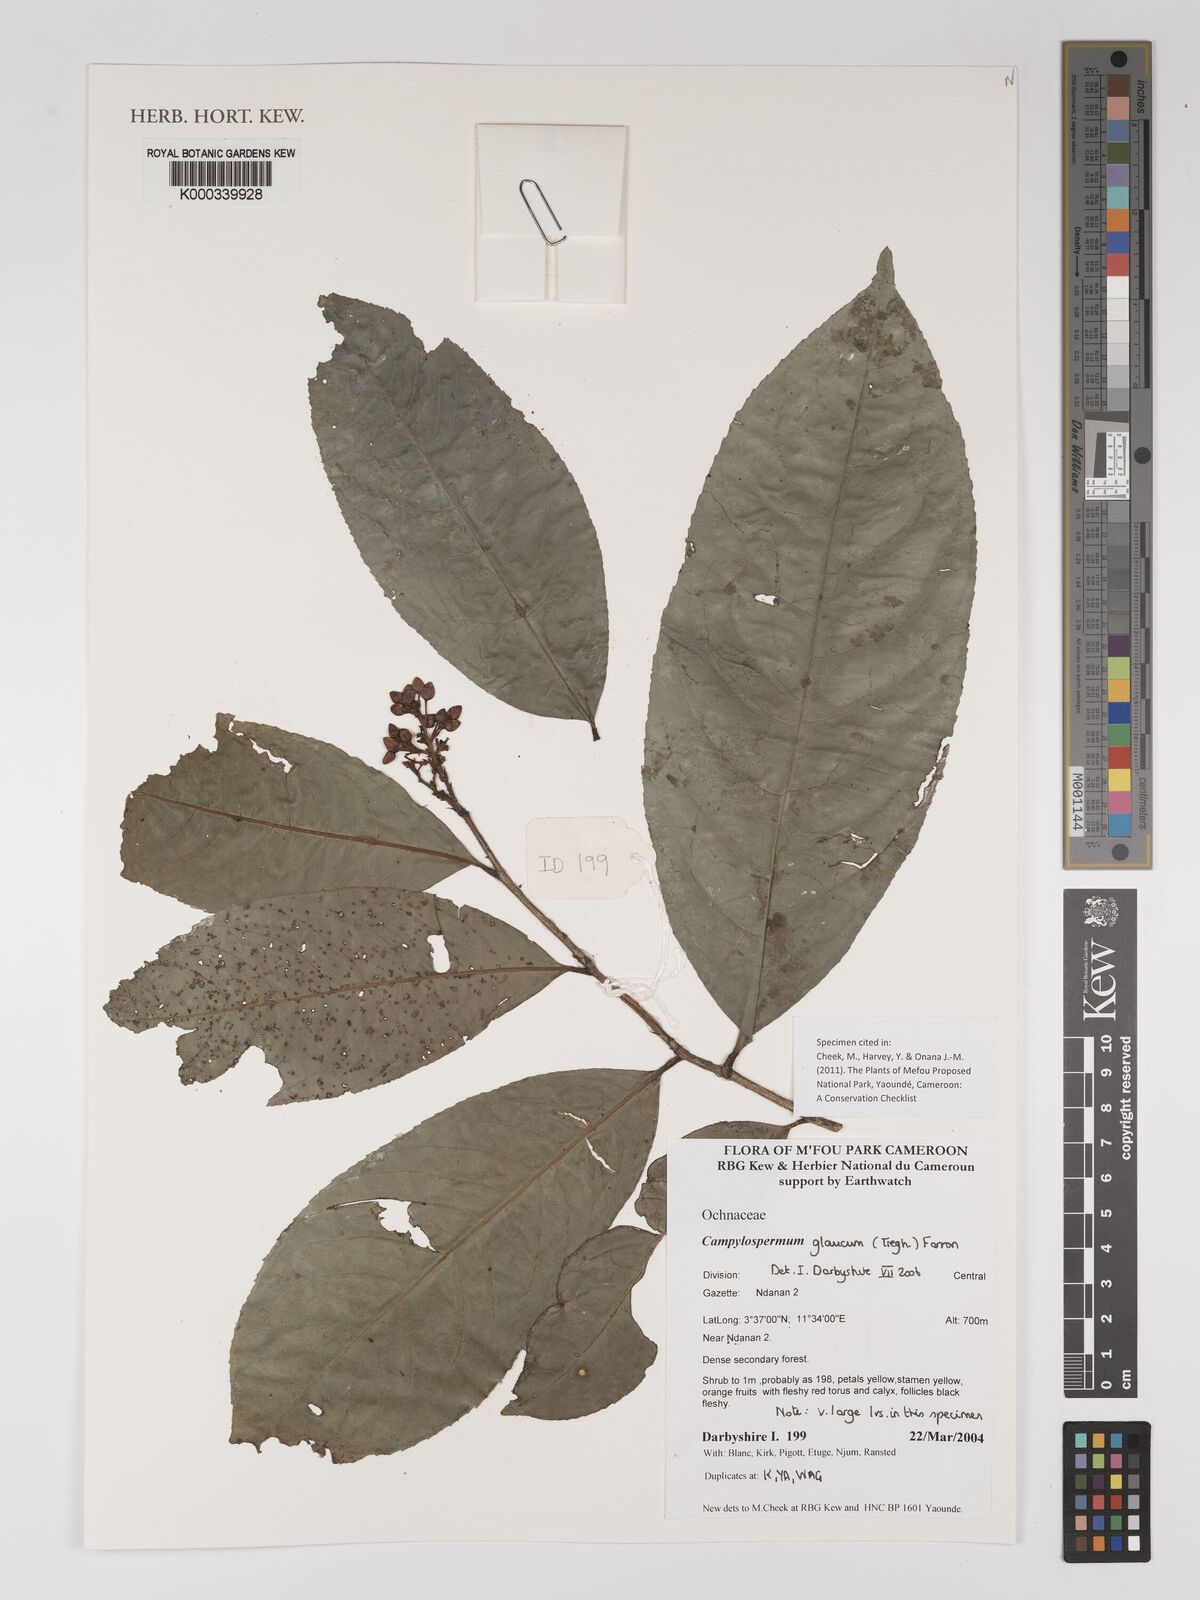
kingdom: Plantae
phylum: Tracheophyta
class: Magnoliopsida
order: Malpighiales
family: Ochnaceae
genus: Campylospermum
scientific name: Campylospermum glaucum
